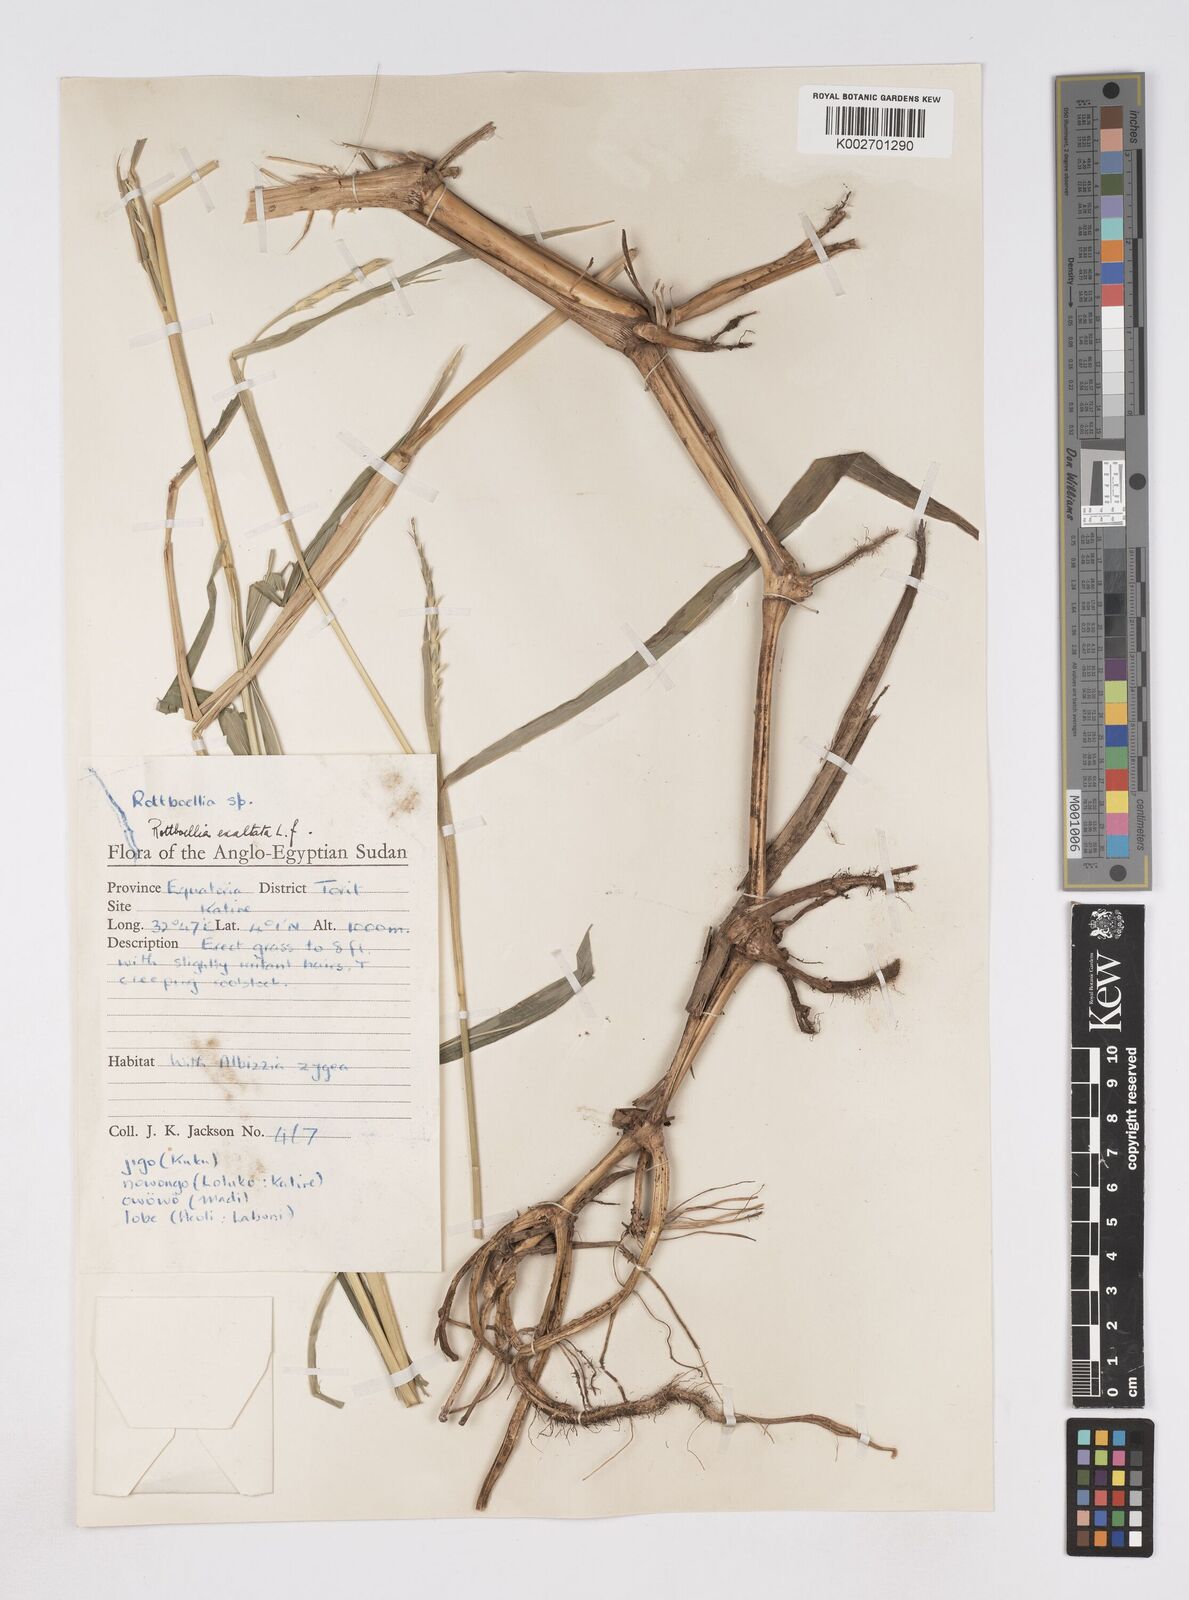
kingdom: Plantae
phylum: Tracheophyta
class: Liliopsida
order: Poales
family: Poaceae
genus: Rottboellia
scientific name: Rottboellia cochinchinensis
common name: Itchgrass
